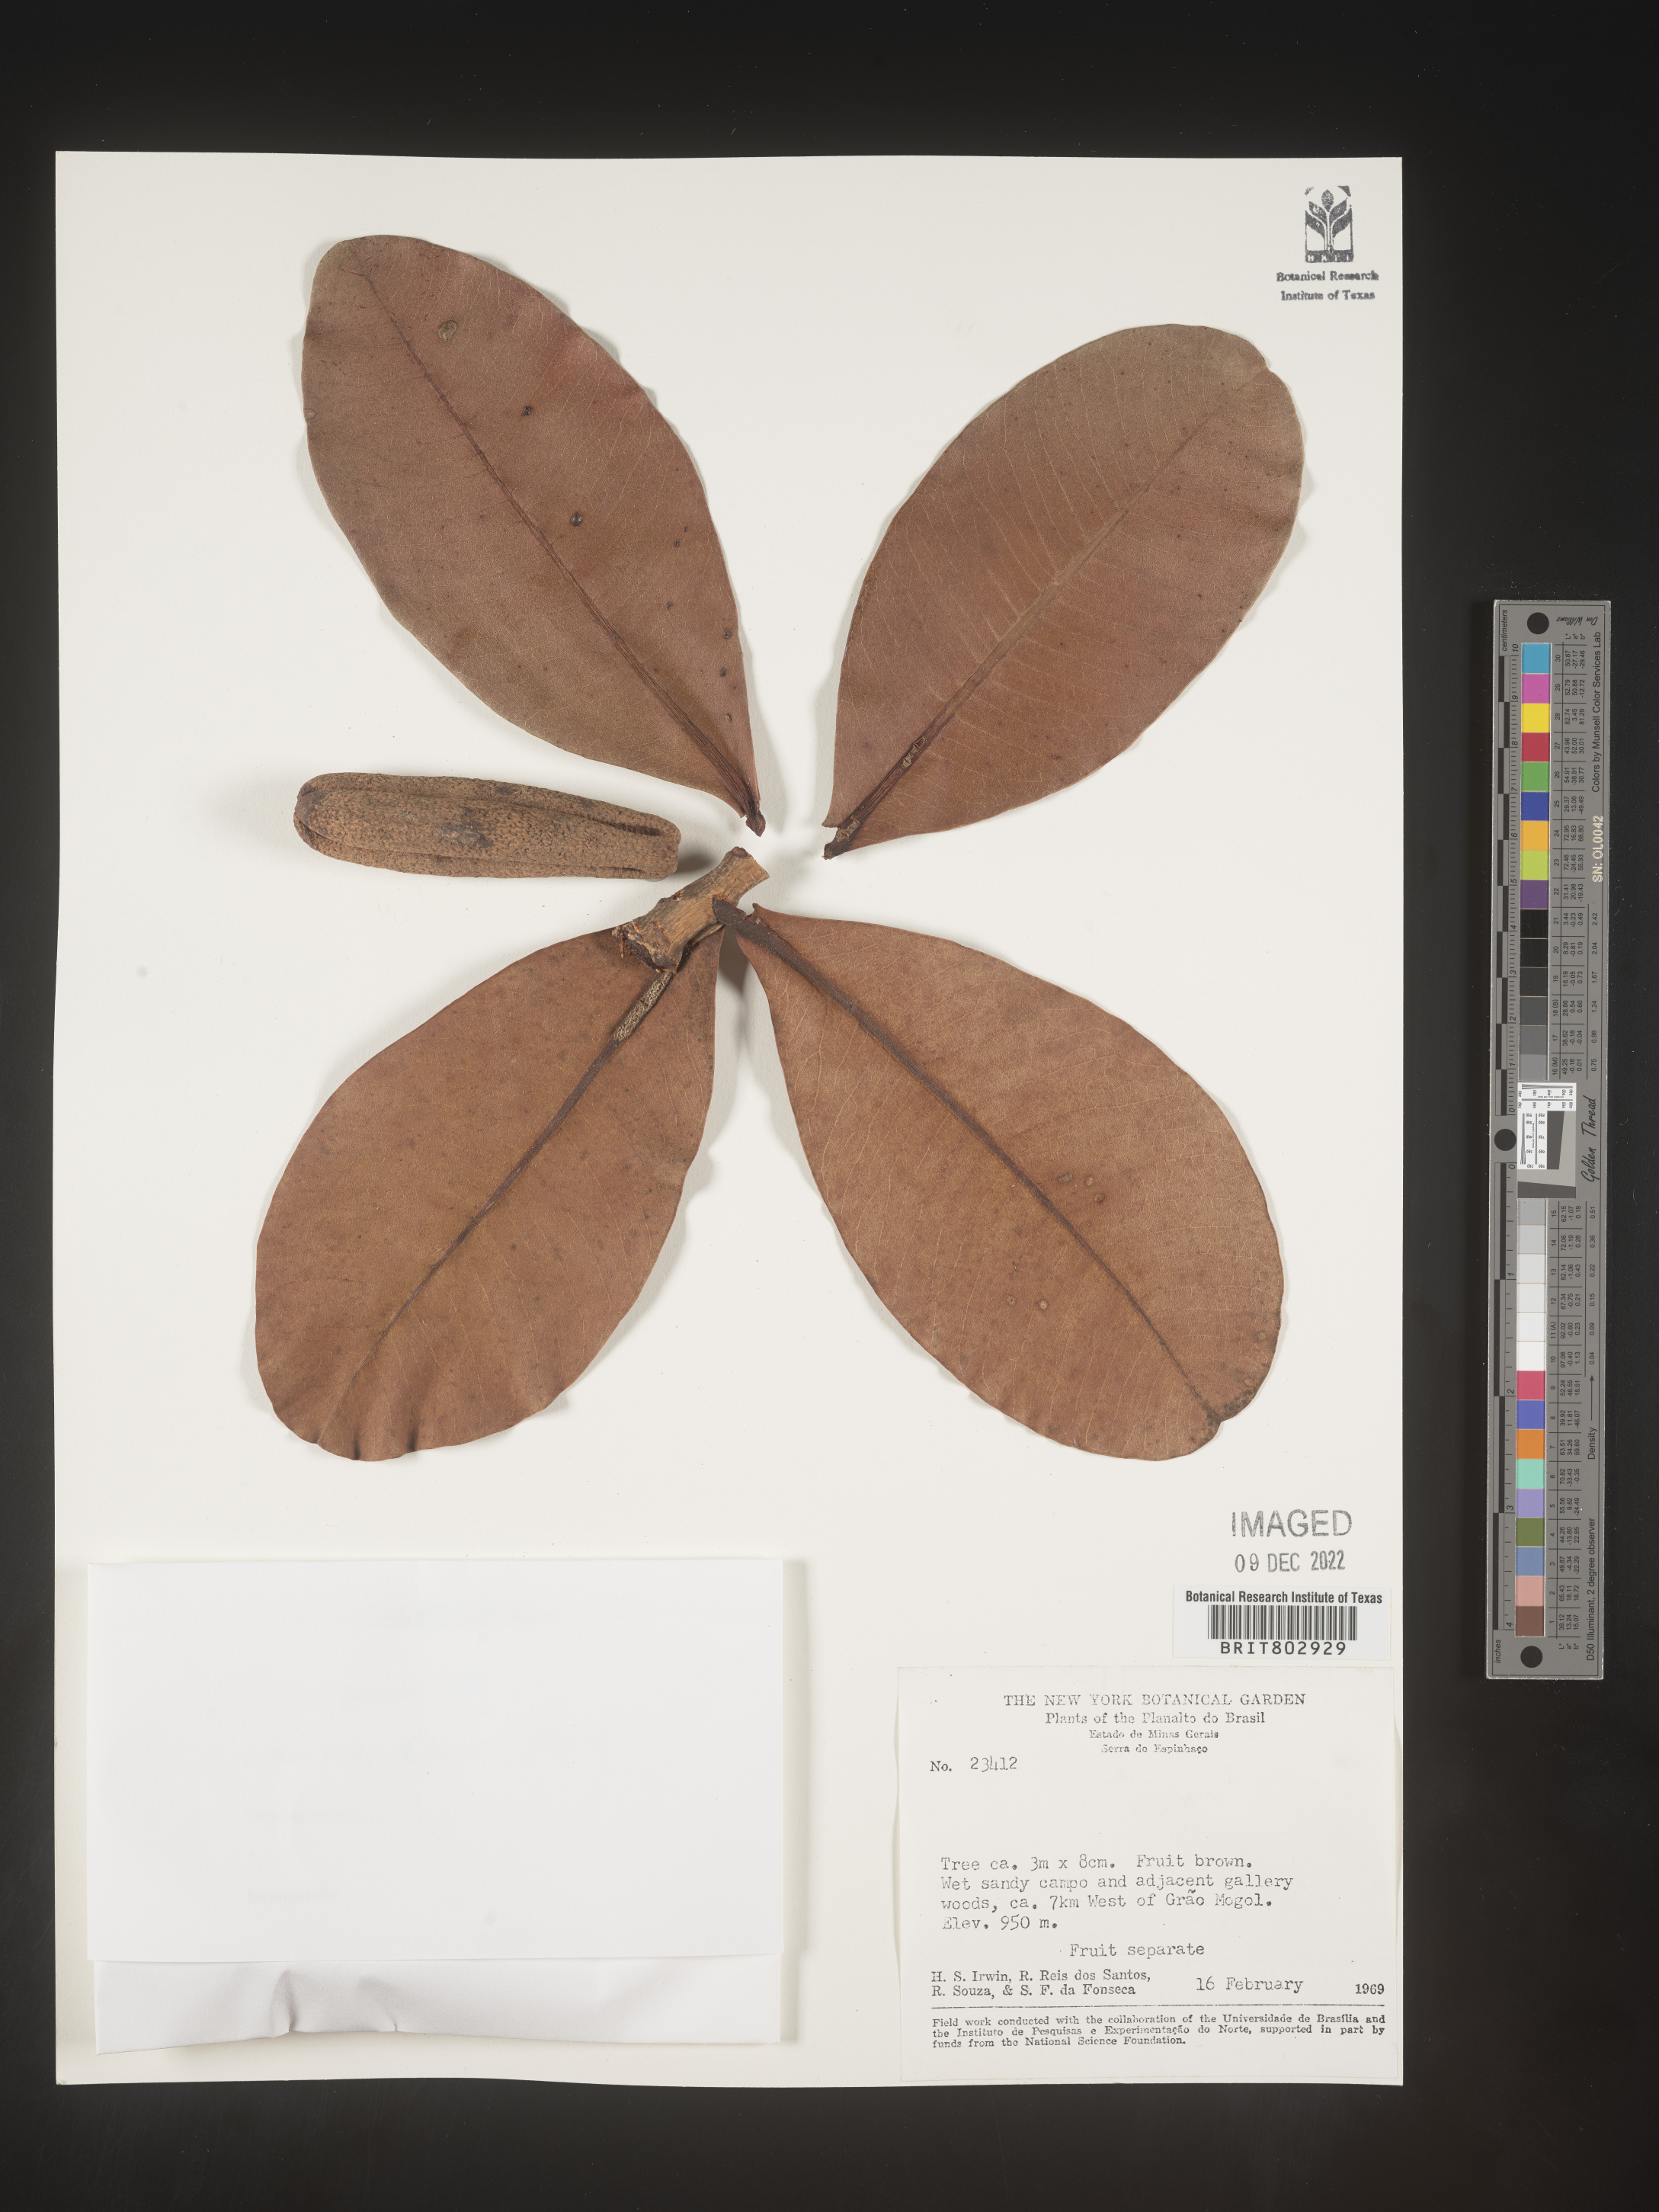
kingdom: Plantae
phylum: Tracheophyta
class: Magnoliopsida
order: Malpighiales
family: Calophyllaceae
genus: Kielmeyera
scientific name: Kielmeyera
